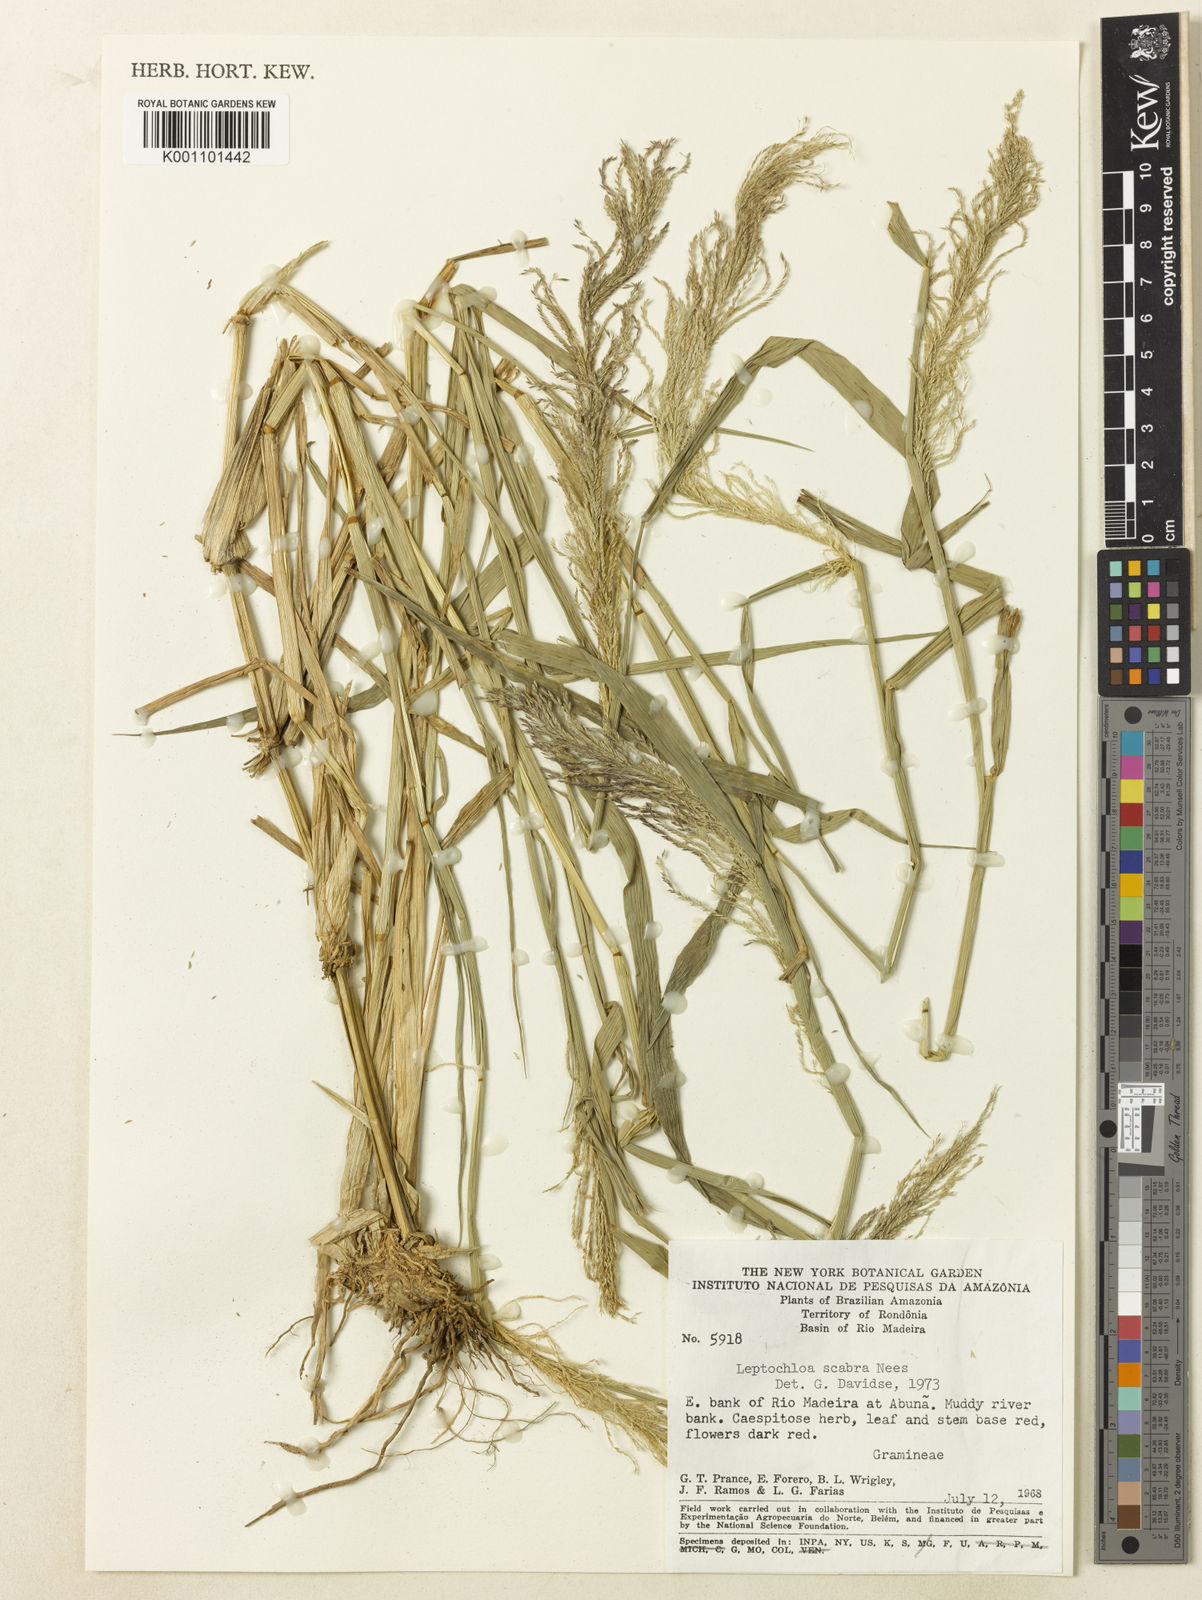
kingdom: Plantae
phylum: Tracheophyta
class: Liliopsida
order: Poales
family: Poaceae
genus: Leptochloa
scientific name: Leptochloa
